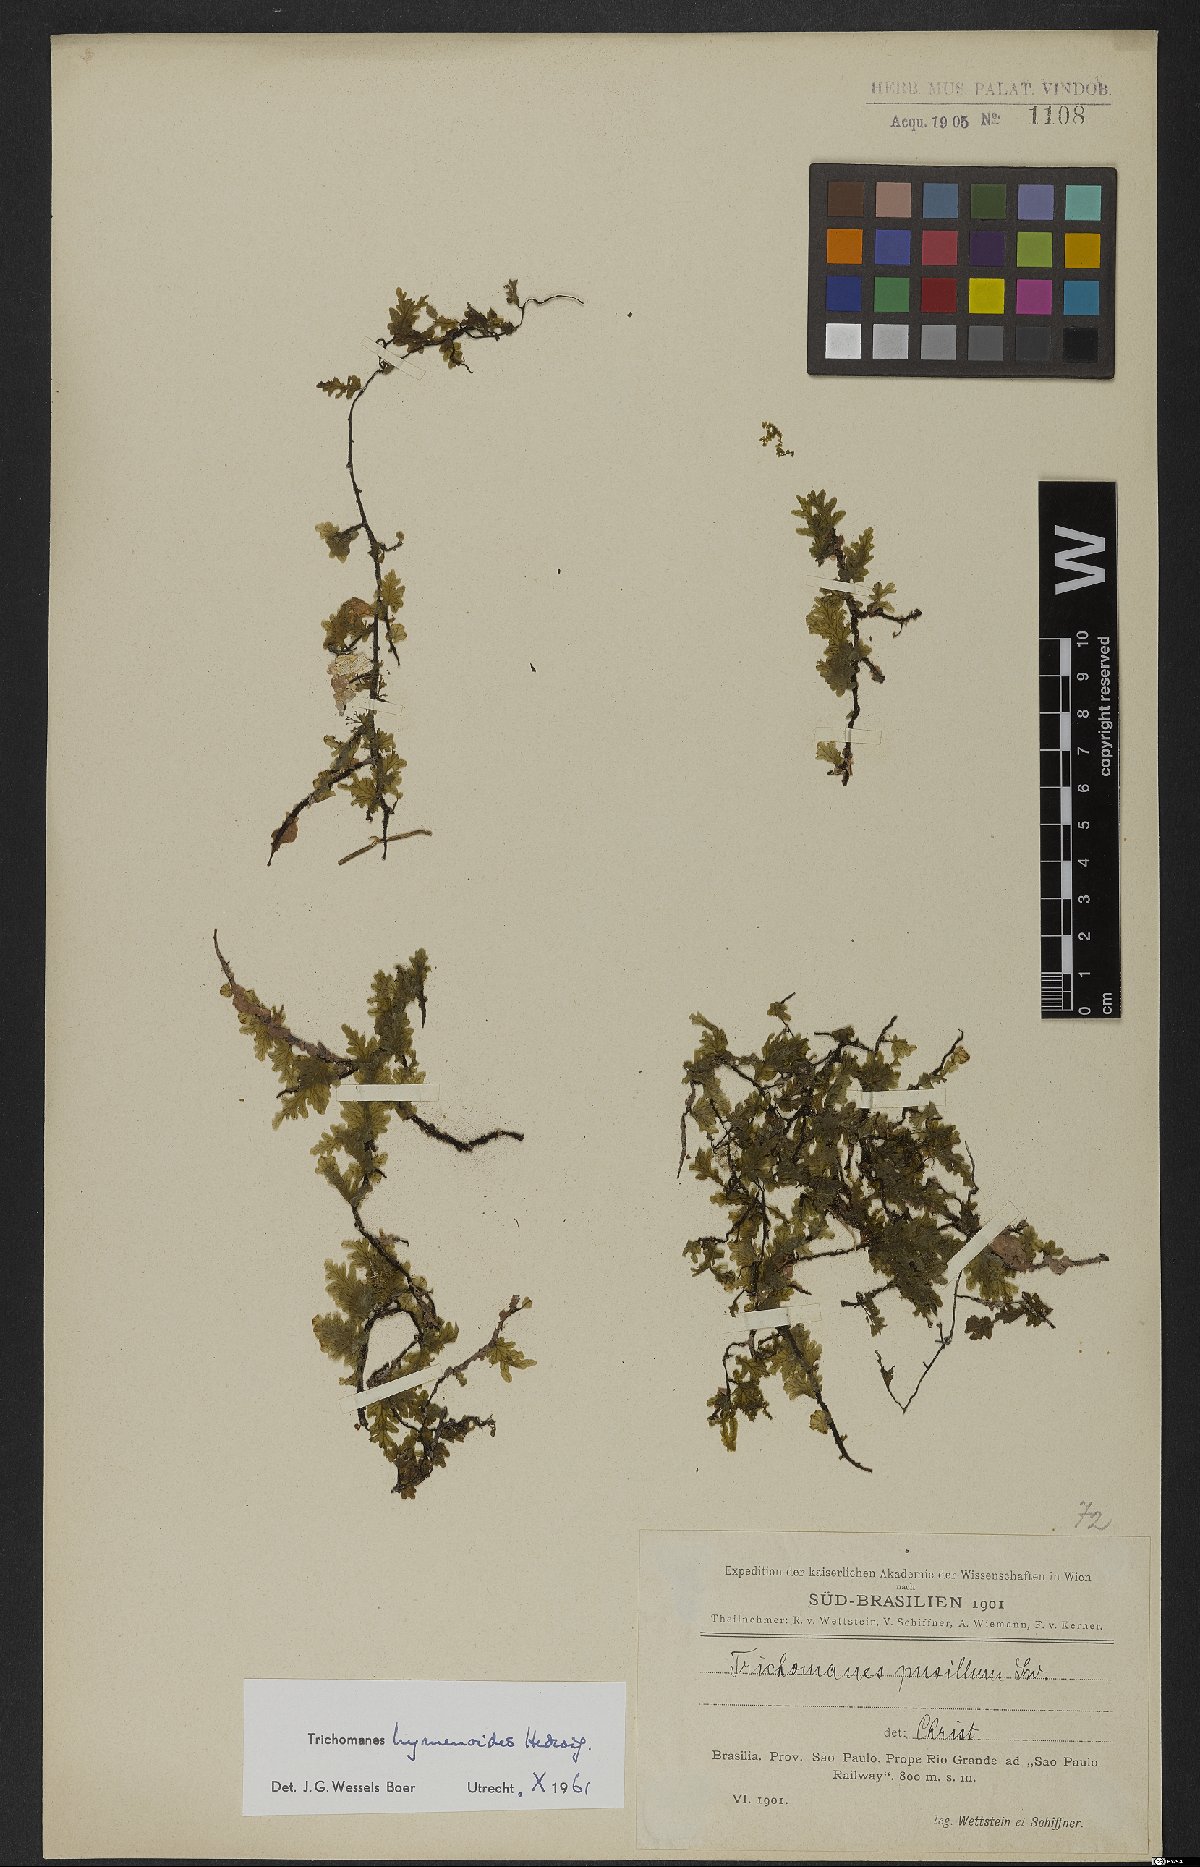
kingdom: Plantae
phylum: Tracheophyta
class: Polypodiopsida
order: Hymenophyllales
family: Hymenophyllaceae
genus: Didymoglossum
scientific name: Didymoglossum hymenoides
